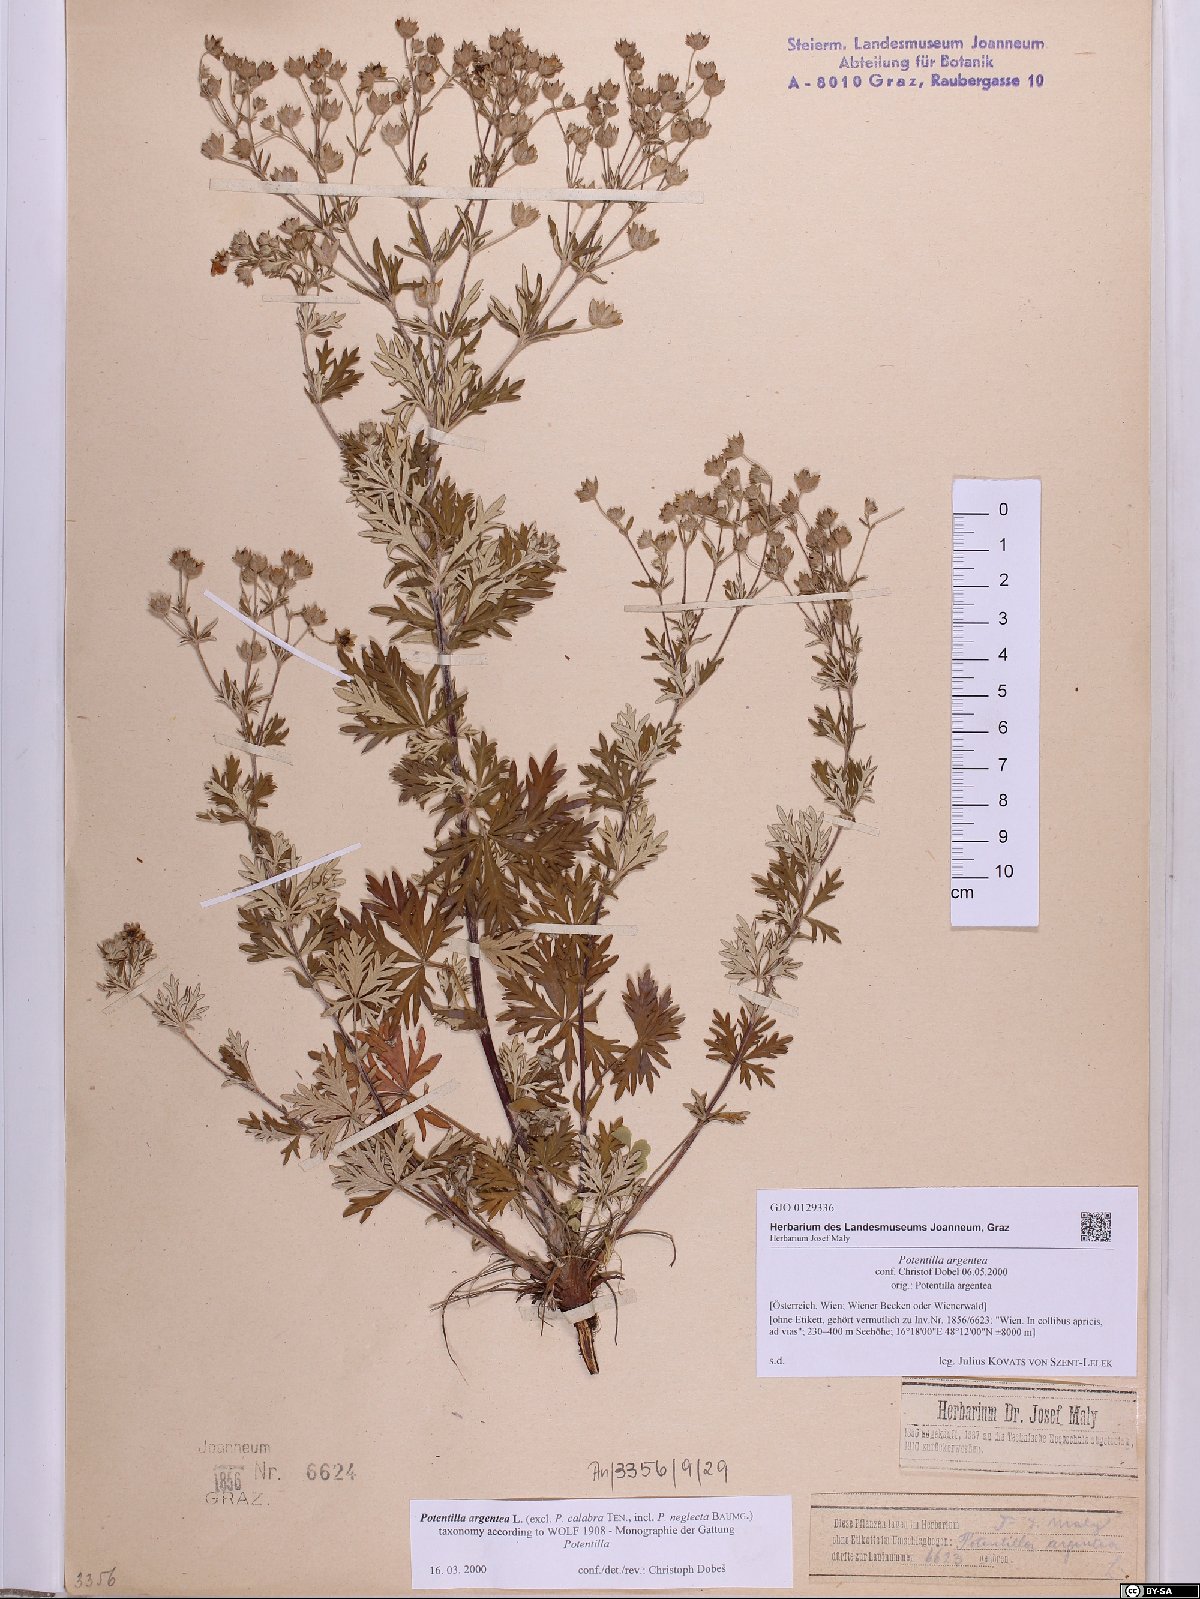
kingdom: Plantae
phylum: Tracheophyta
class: Magnoliopsida
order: Rosales
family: Rosaceae
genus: Potentilla
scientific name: Potentilla argentea
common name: Hoary cinquefoil
